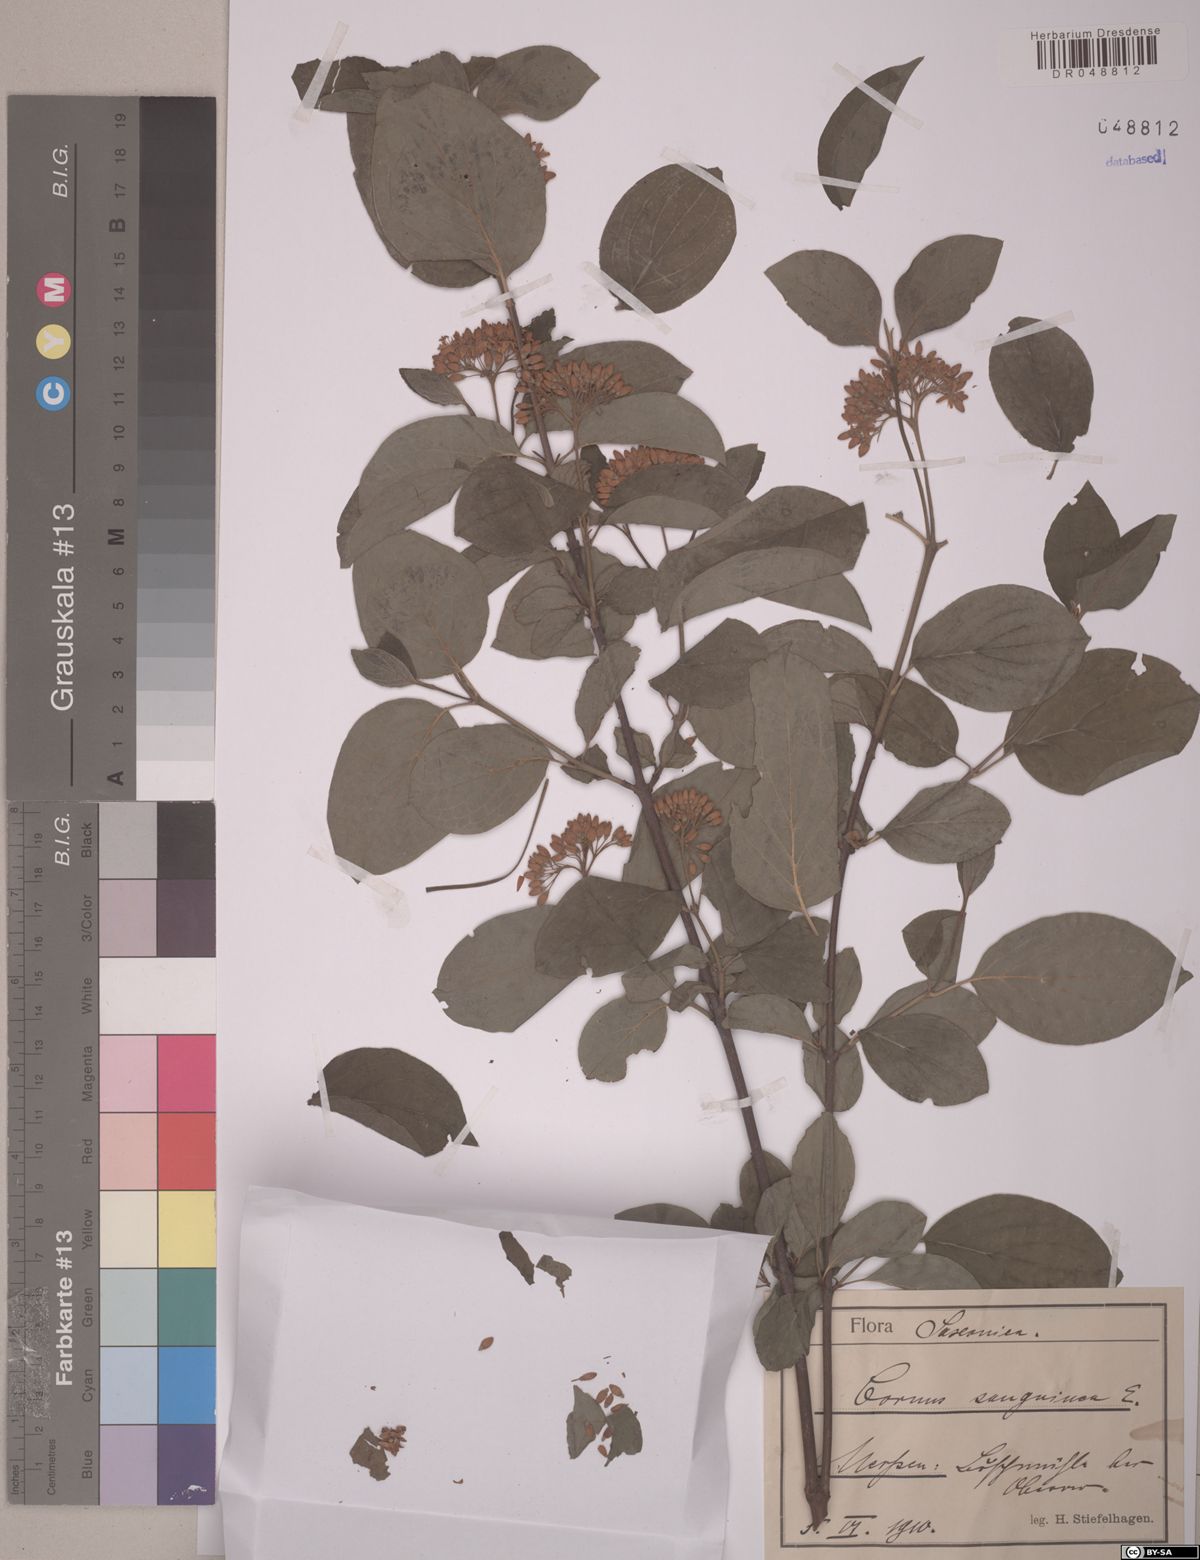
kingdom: Plantae
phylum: Tracheophyta
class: Magnoliopsida
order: Cornales
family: Cornaceae
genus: Cornus
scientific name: Cornus sanguinea
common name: Dogwood
